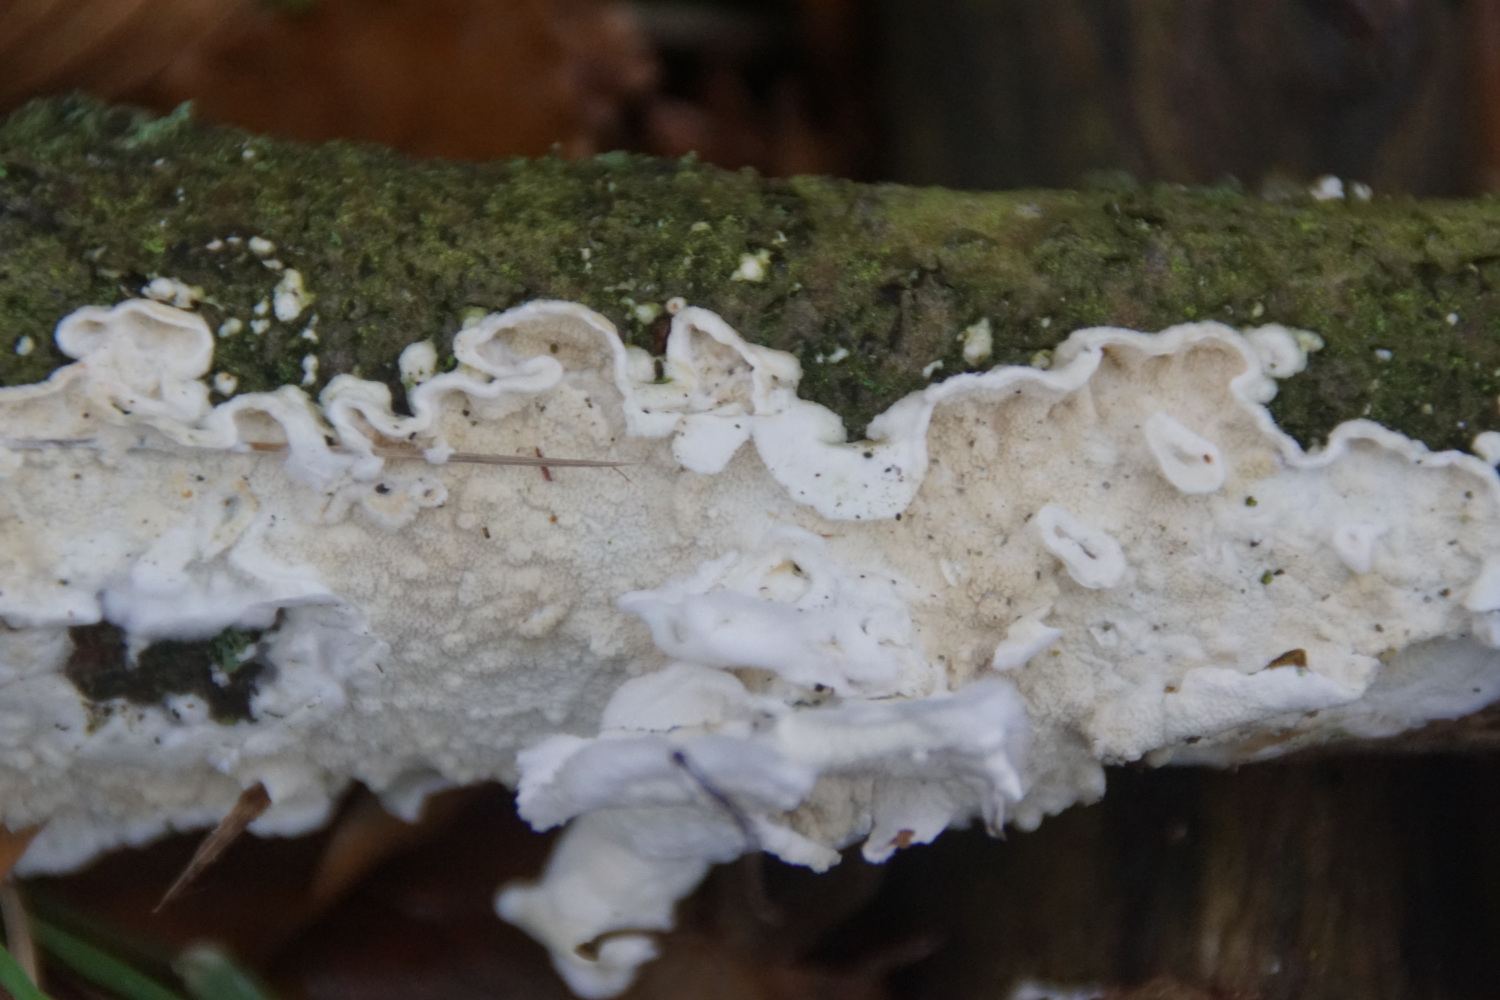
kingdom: Fungi
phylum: Basidiomycota
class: Agaricomycetes
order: Polyporales
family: Irpicaceae
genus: Byssomerulius
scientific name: Byssomerulius corium
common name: læder-åresvamp
